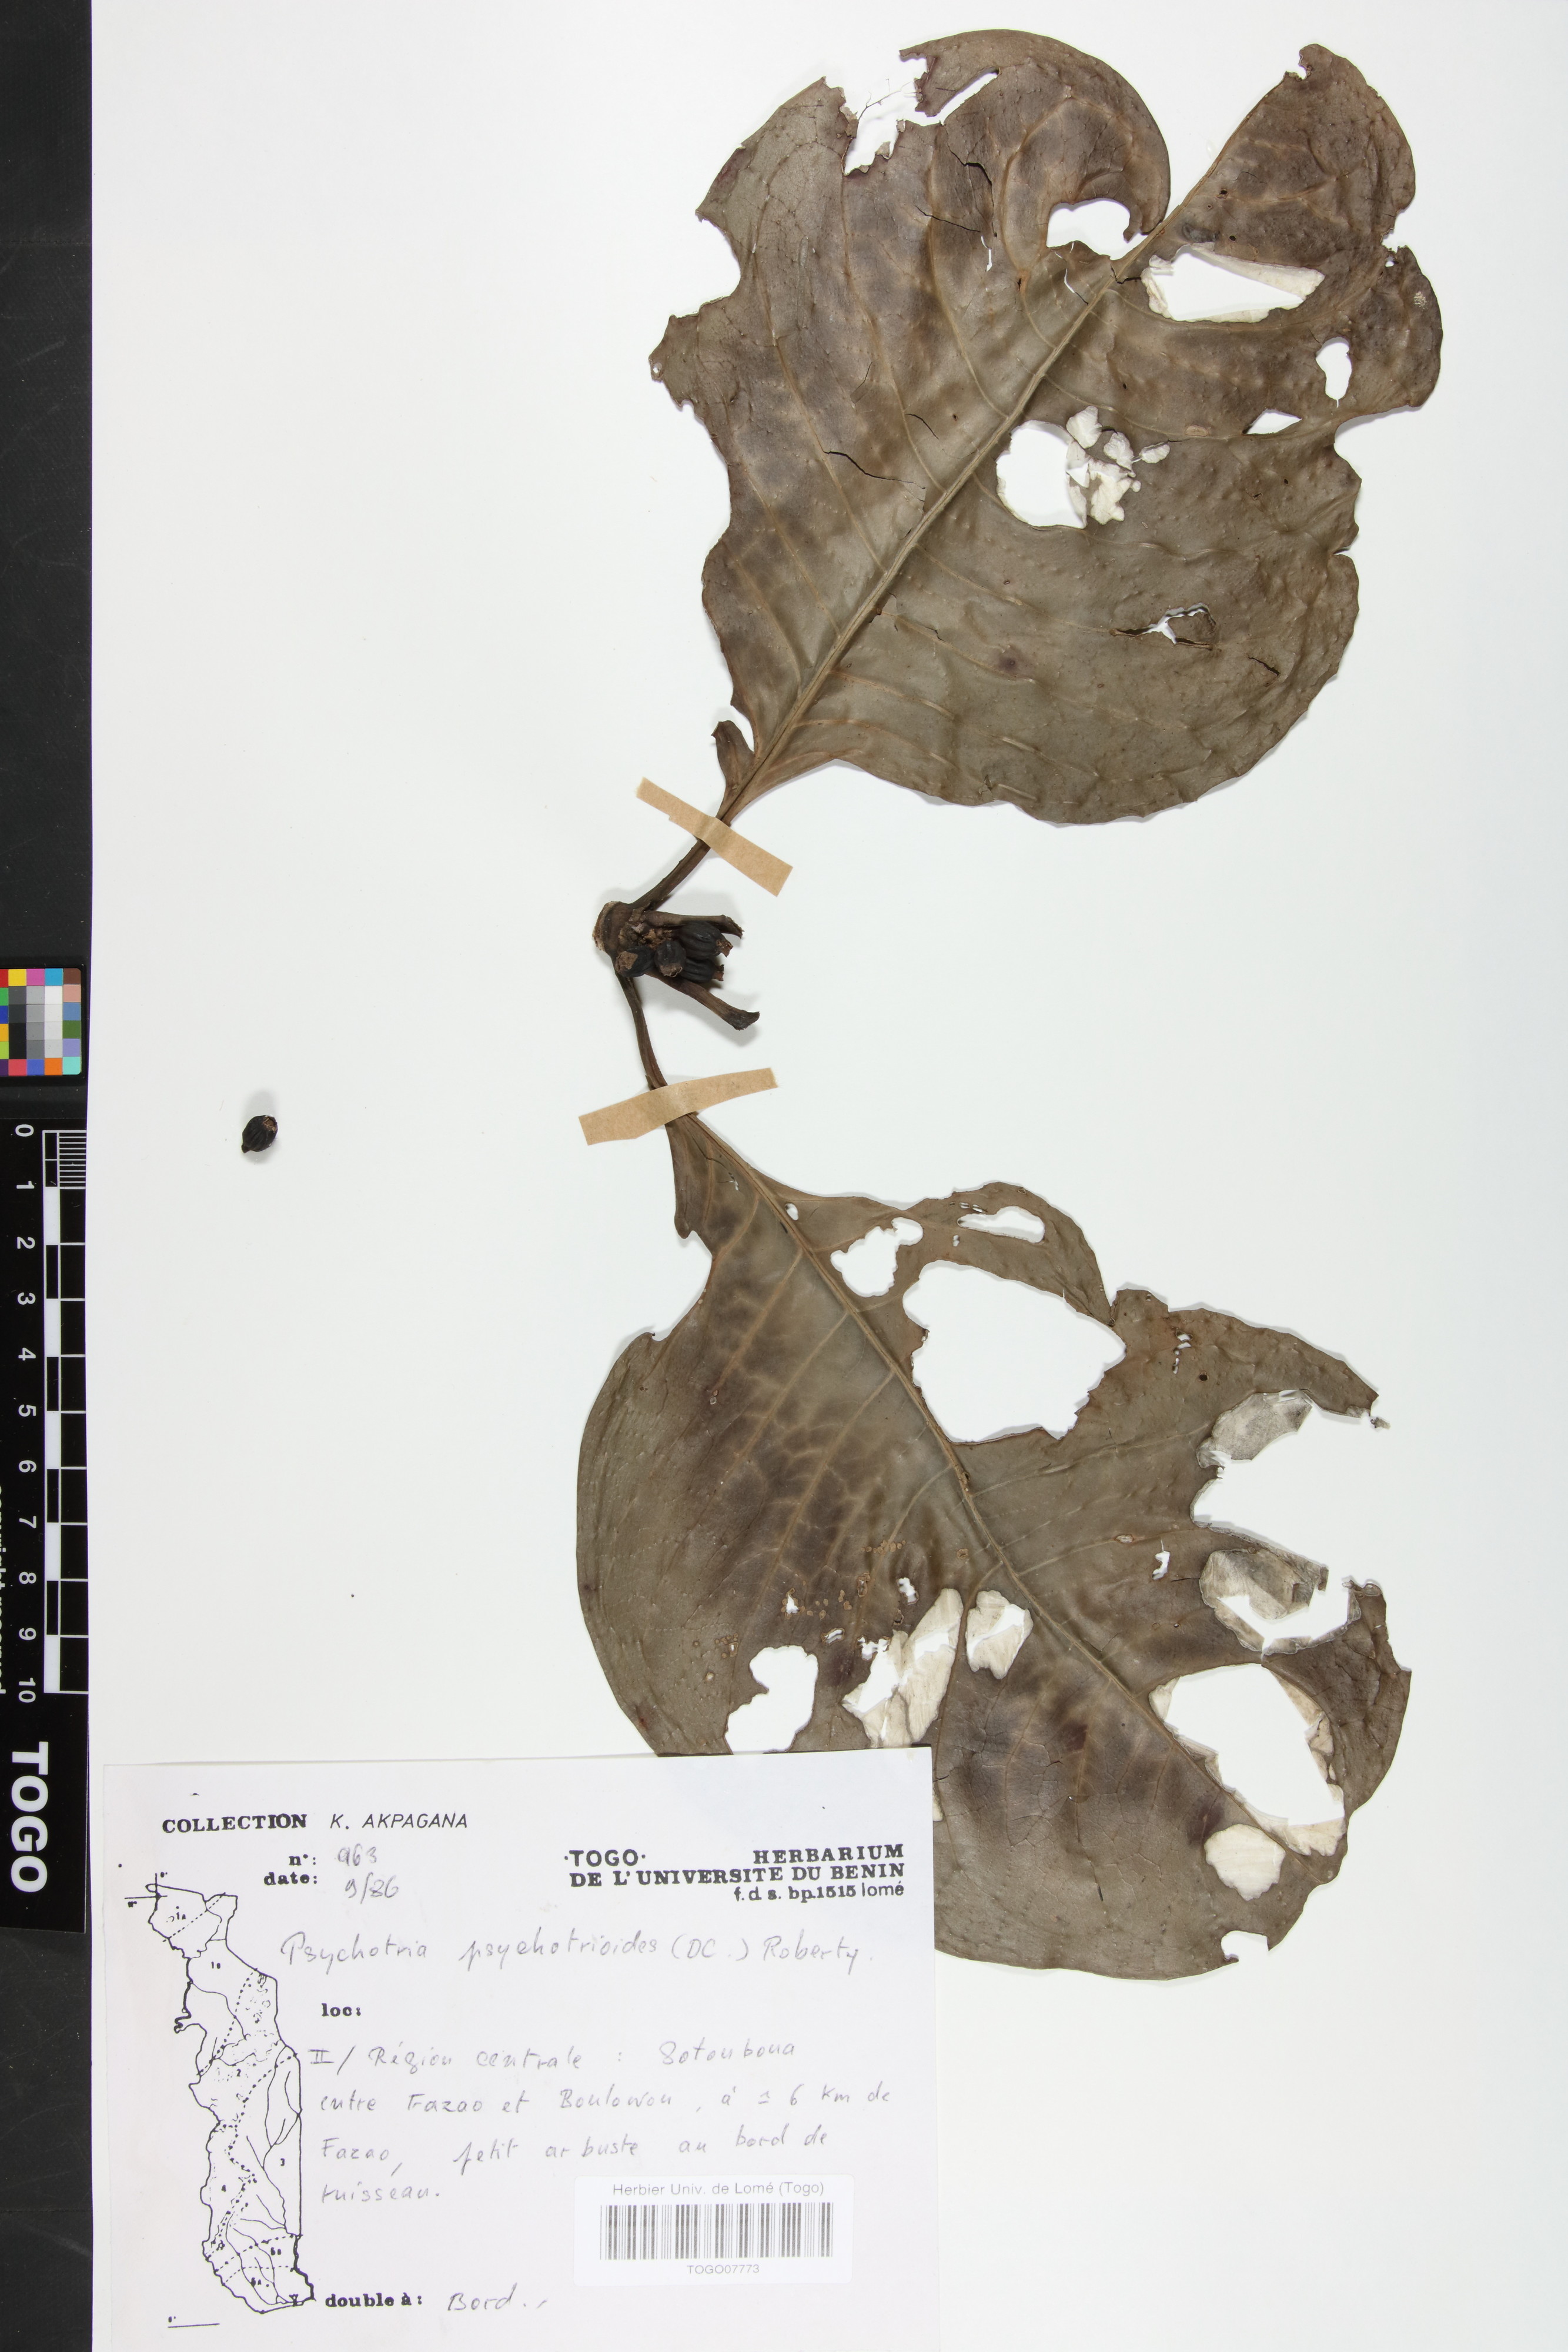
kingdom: Plantae
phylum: Tracheophyta
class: Magnoliopsida
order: Gentianales
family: Rubiaceae
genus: Psychotria
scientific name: Psychotria psychotrioides
